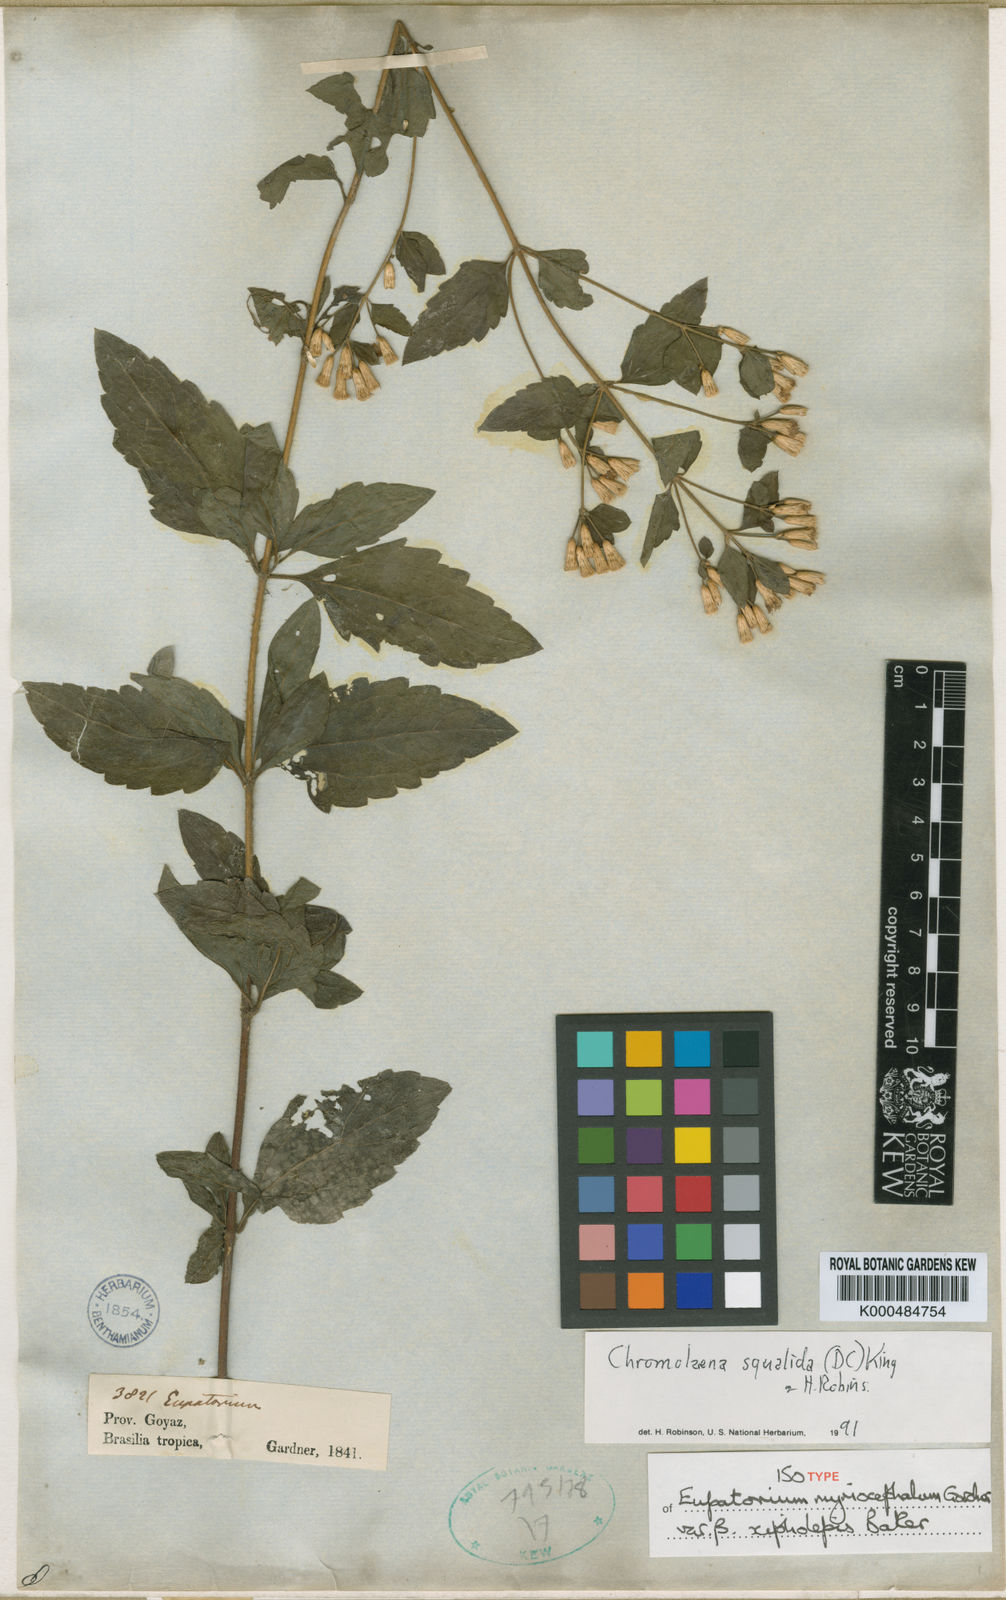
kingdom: Plantae
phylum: Tracheophyta
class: Magnoliopsida
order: Asterales
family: Asteraceae
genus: Chromolaena
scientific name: Chromolaena myriocephala
